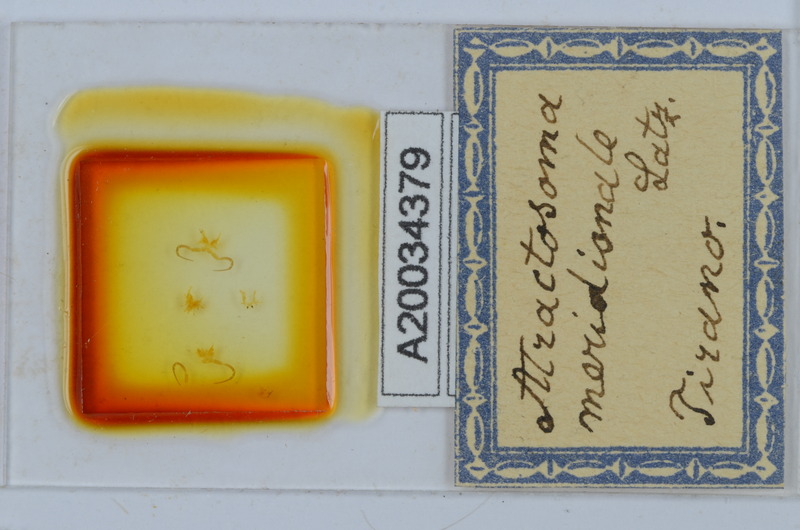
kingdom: Animalia
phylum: Arthropoda
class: Diplopoda
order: Chordeumatida
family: Craspedosomatidae
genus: Atractosoma
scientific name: Atractosoma meridionale
